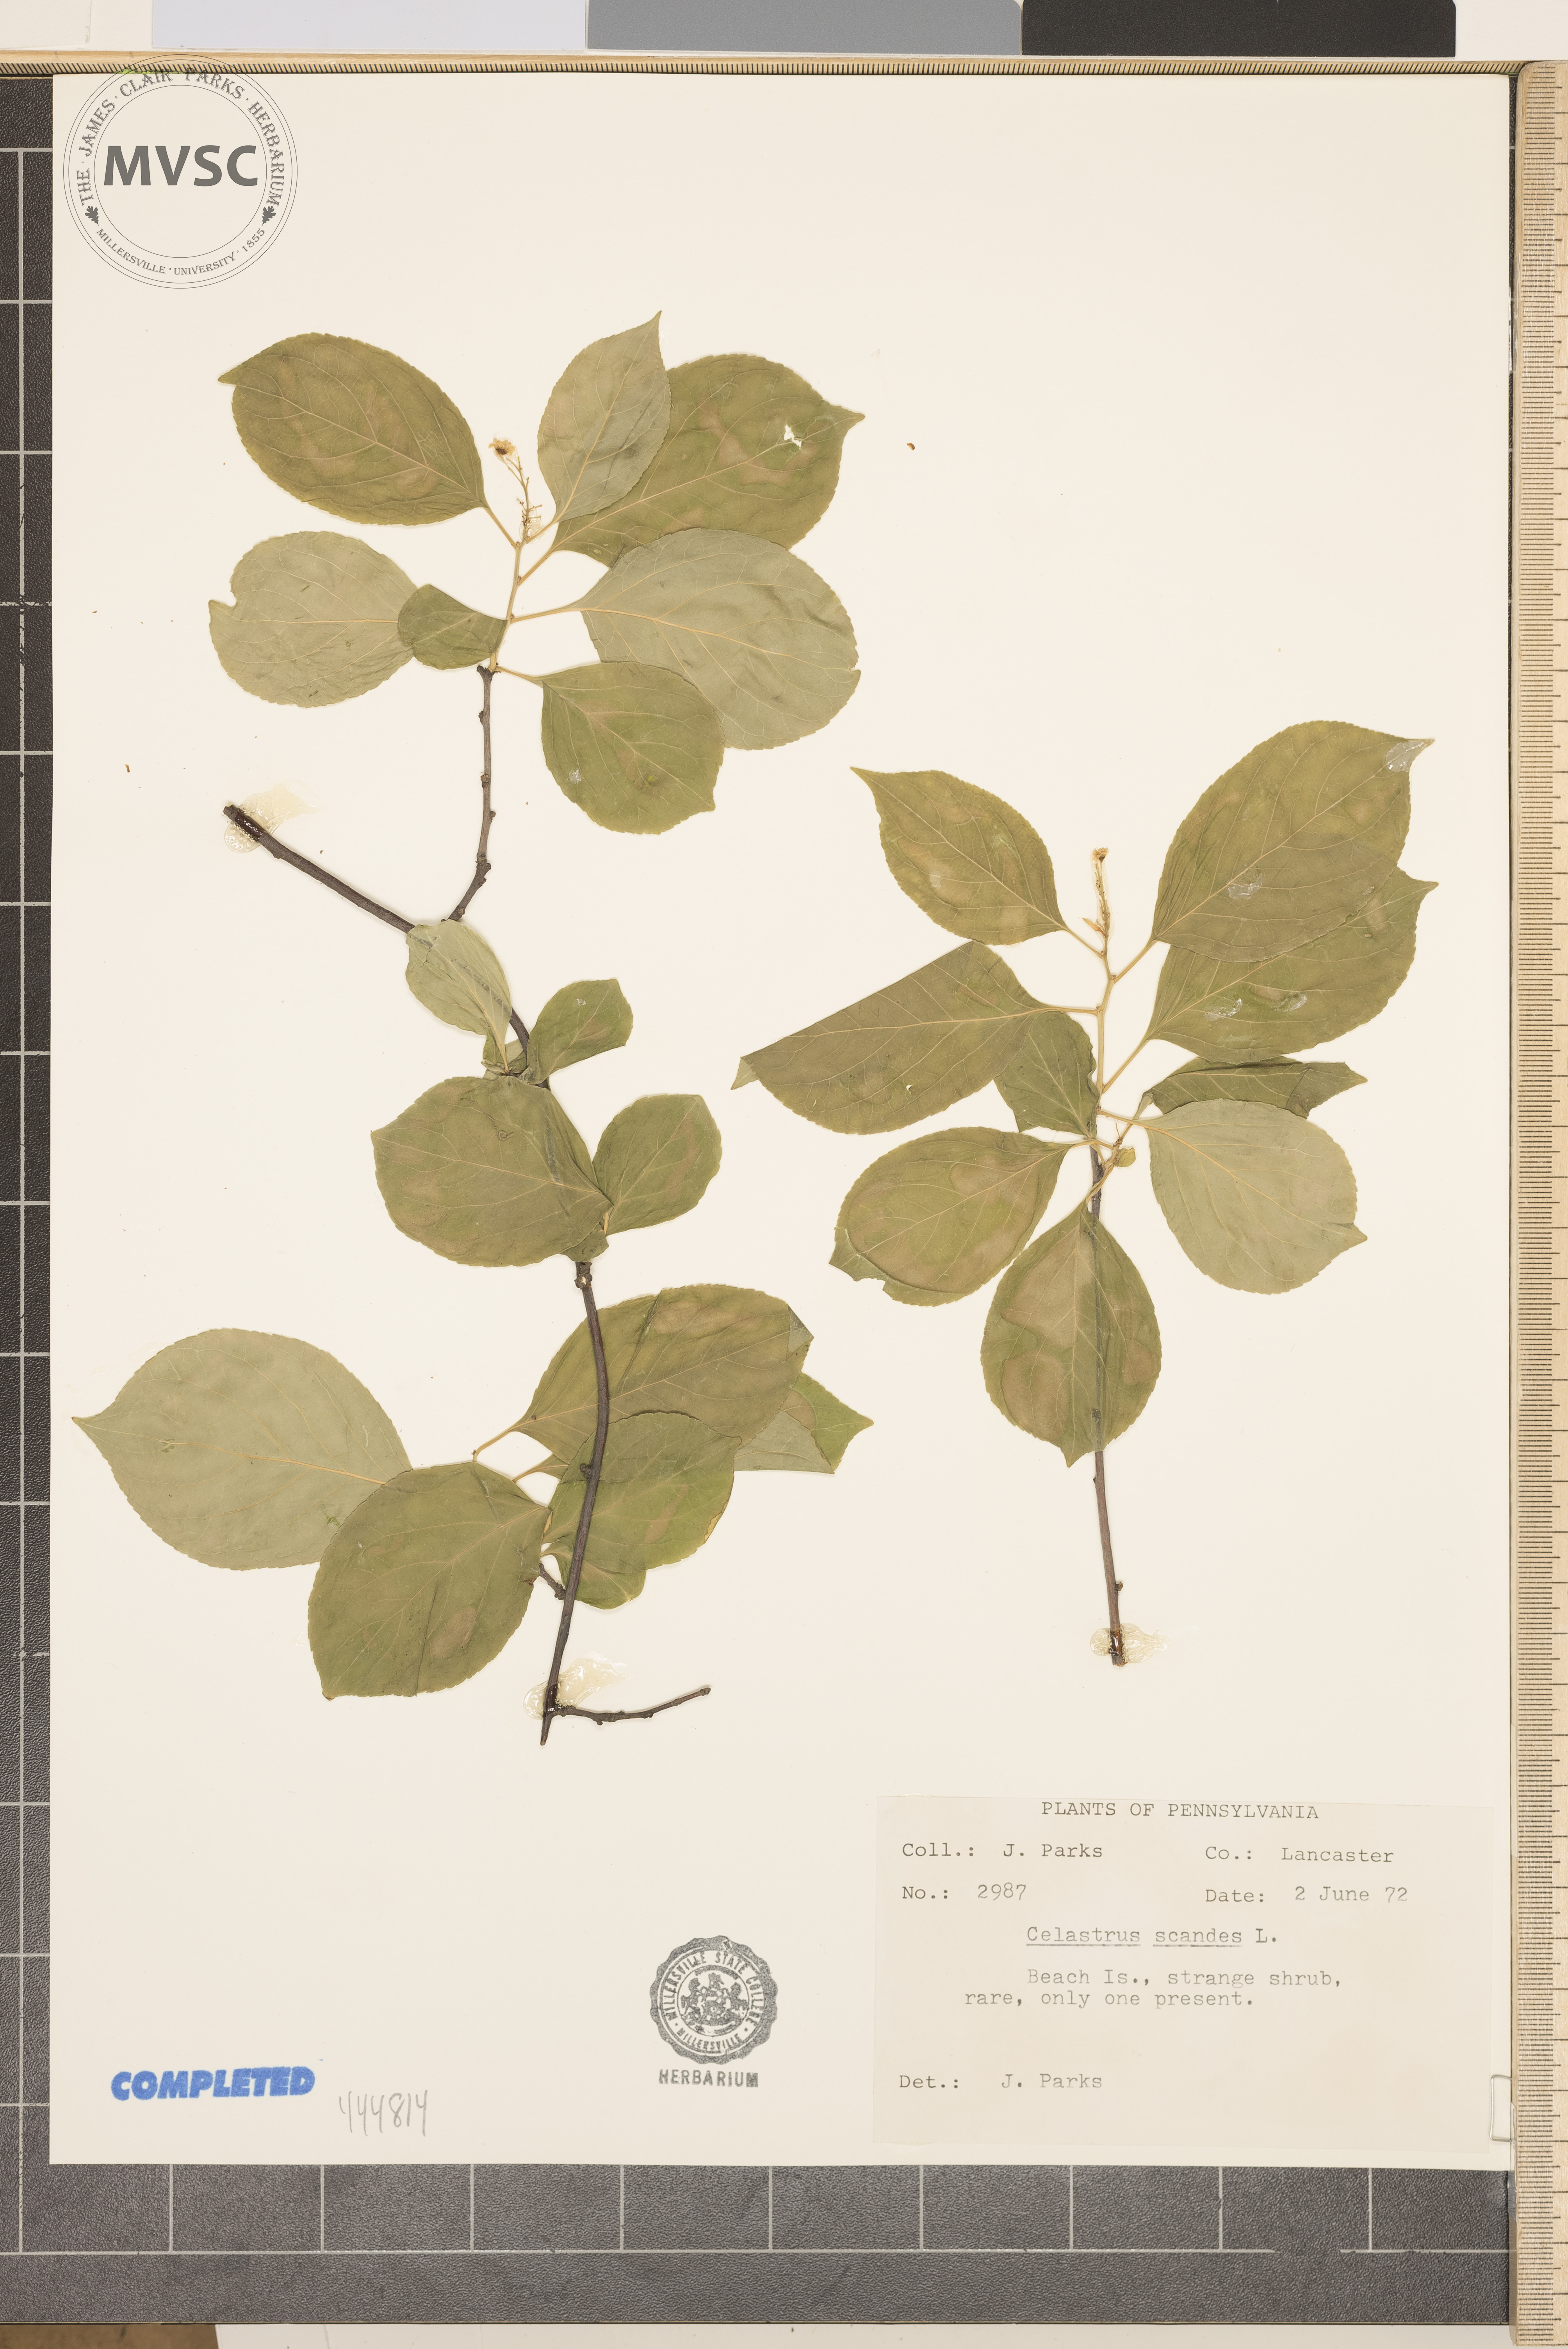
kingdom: Plantae
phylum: Tracheophyta
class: Magnoliopsida
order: Celastrales
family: Celastraceae
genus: Celastrus
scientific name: Celastrus scandens
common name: American bittersweet
